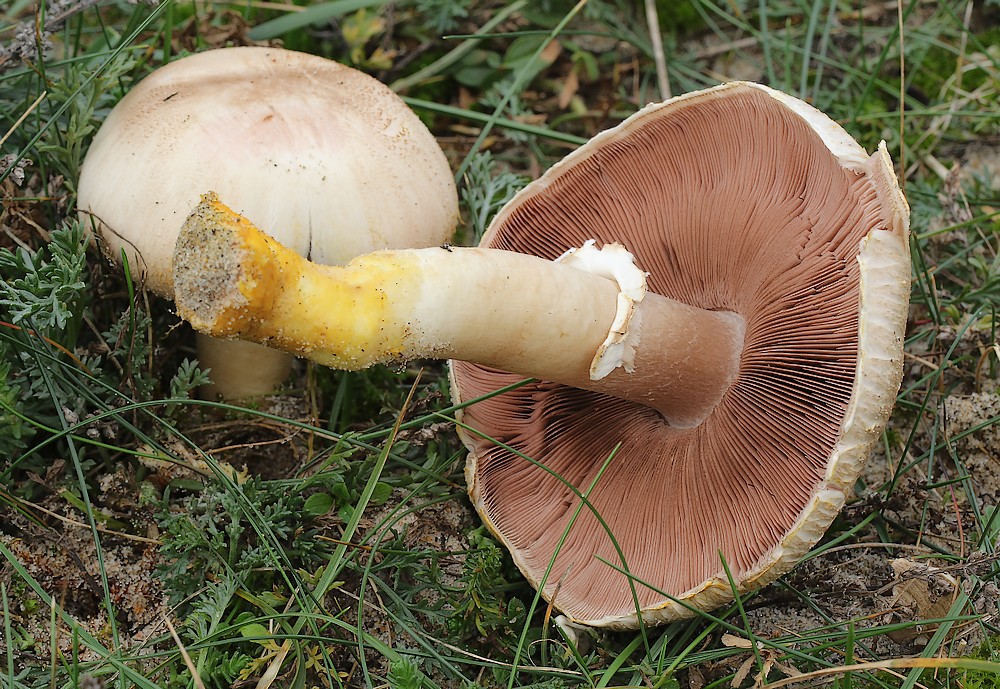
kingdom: Fungi
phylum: Basidiomycota
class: Agaricomycetes
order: Agaricales
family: Agaricaceae
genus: Agaricus
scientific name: Agaricus xanthodermus
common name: karbol-champignon
